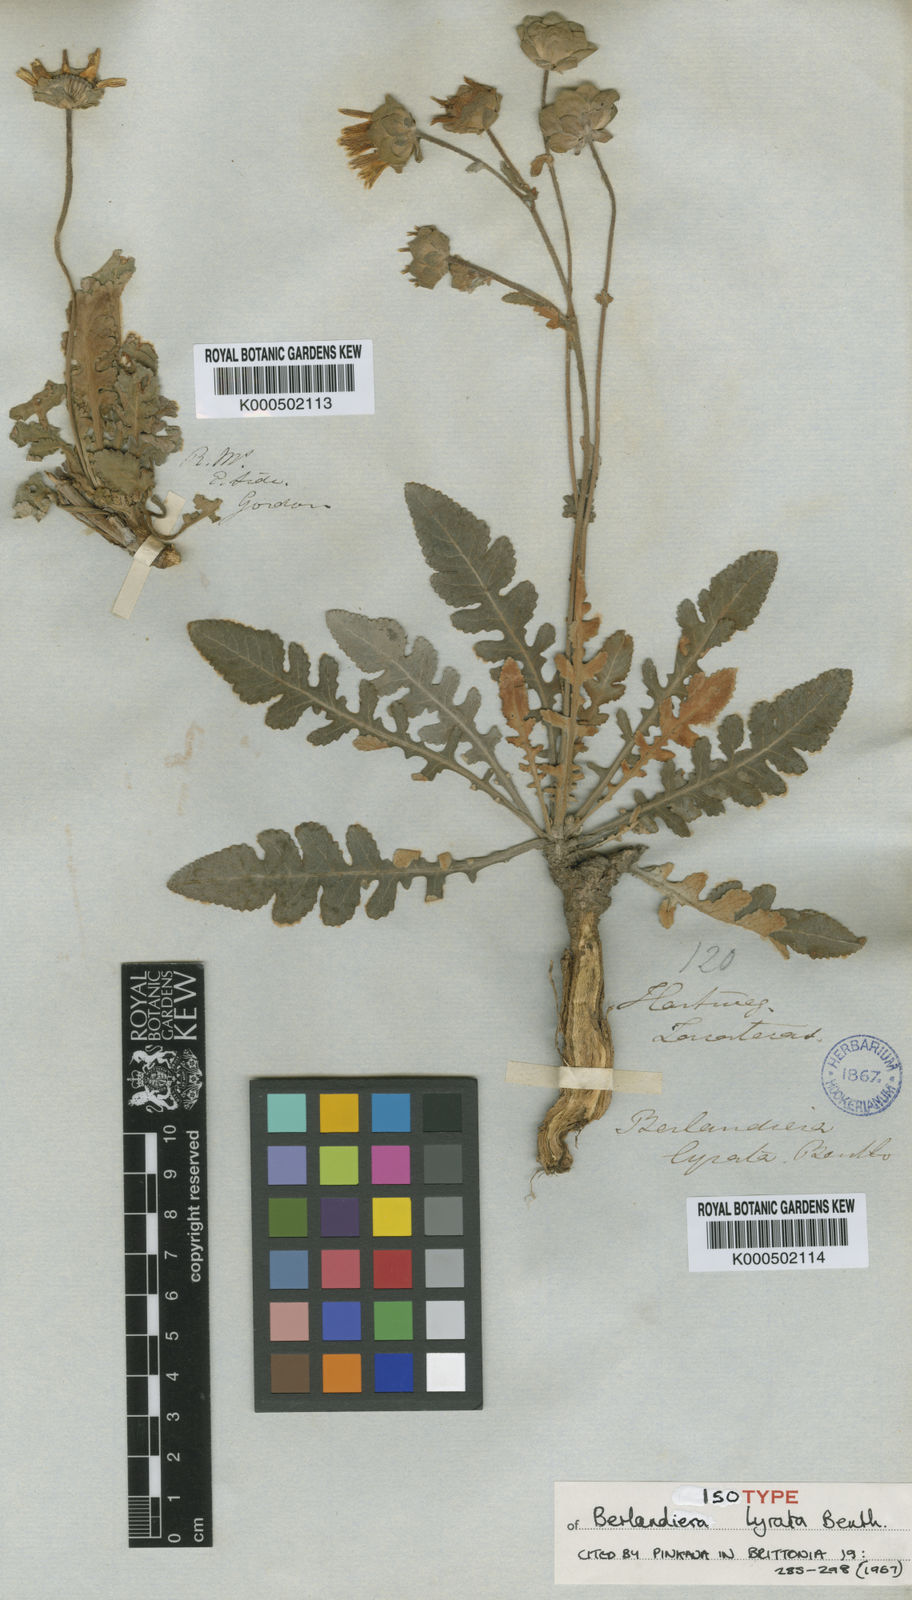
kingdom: Plantae
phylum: Tracheophyta
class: Magnoliopsida
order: Asterales
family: Asteraceae
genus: Berlandiera
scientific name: Berlandiera lyrata
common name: Chocolate-flower
